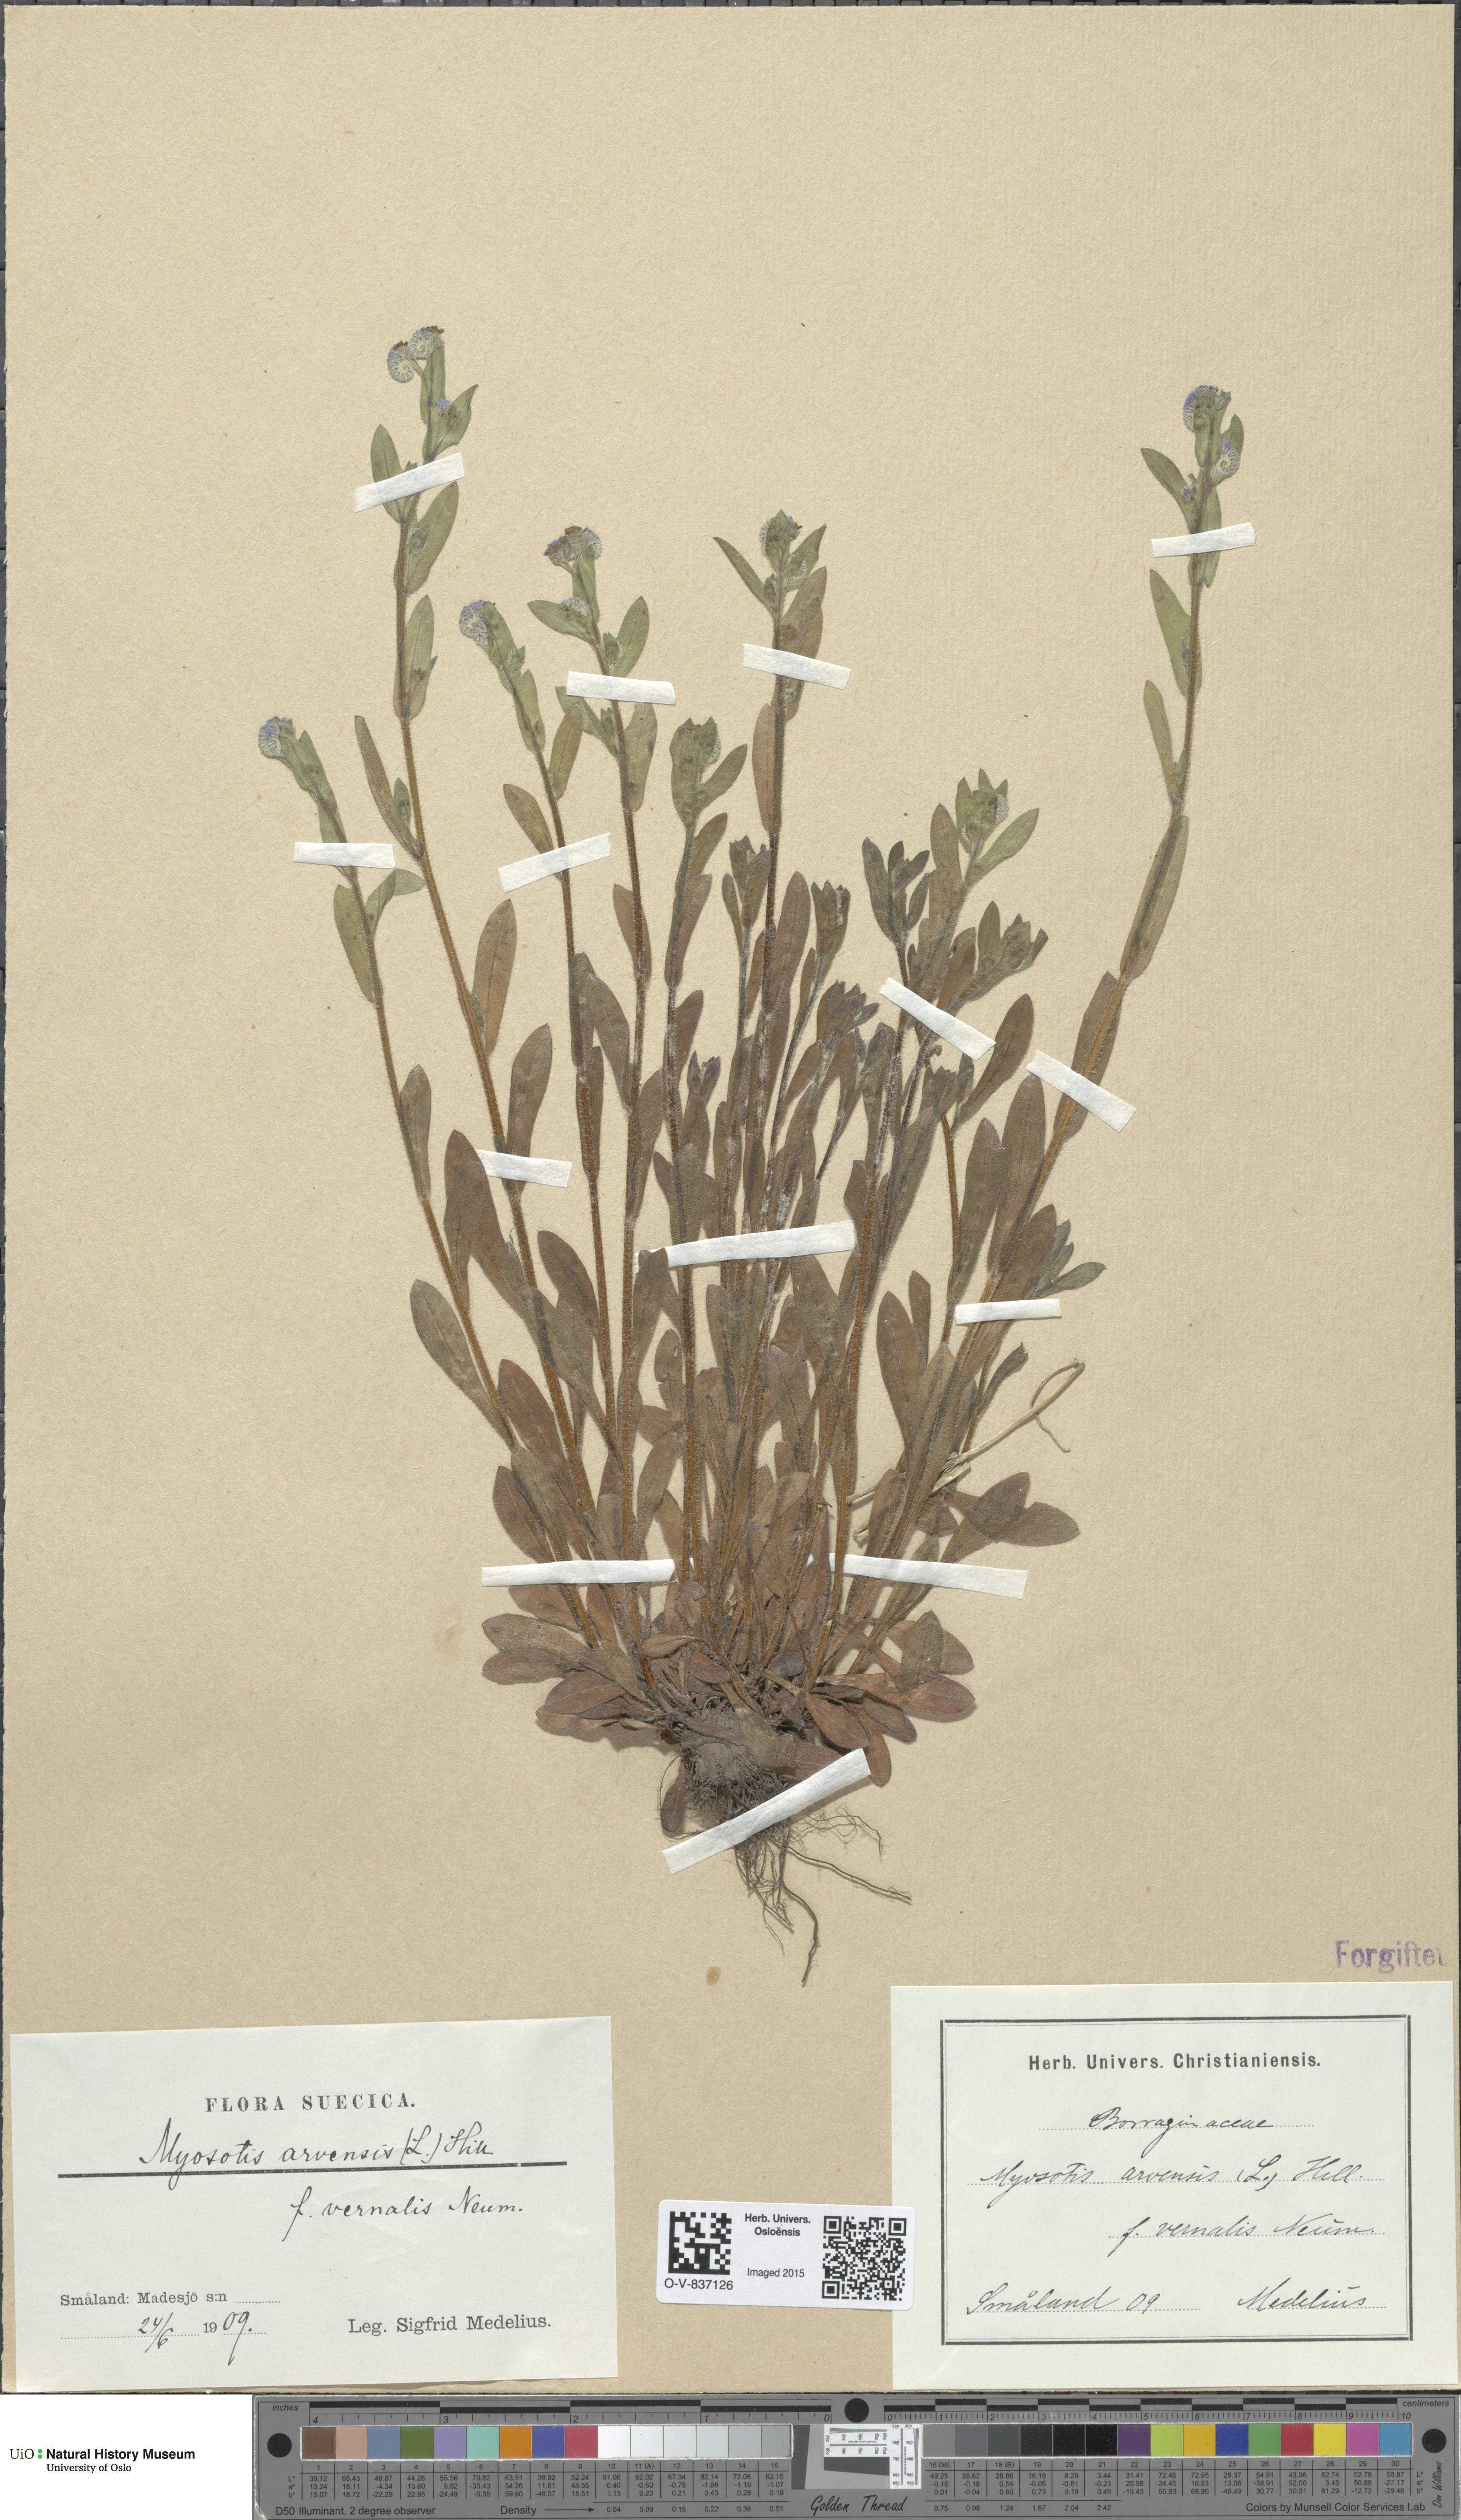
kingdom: Plantae
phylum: Tracheophyta
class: Magnoliopsida
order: Boraginales
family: Boraginaceae
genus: Myosotis
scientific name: Myosotis arvensis
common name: Field forget-me-not
